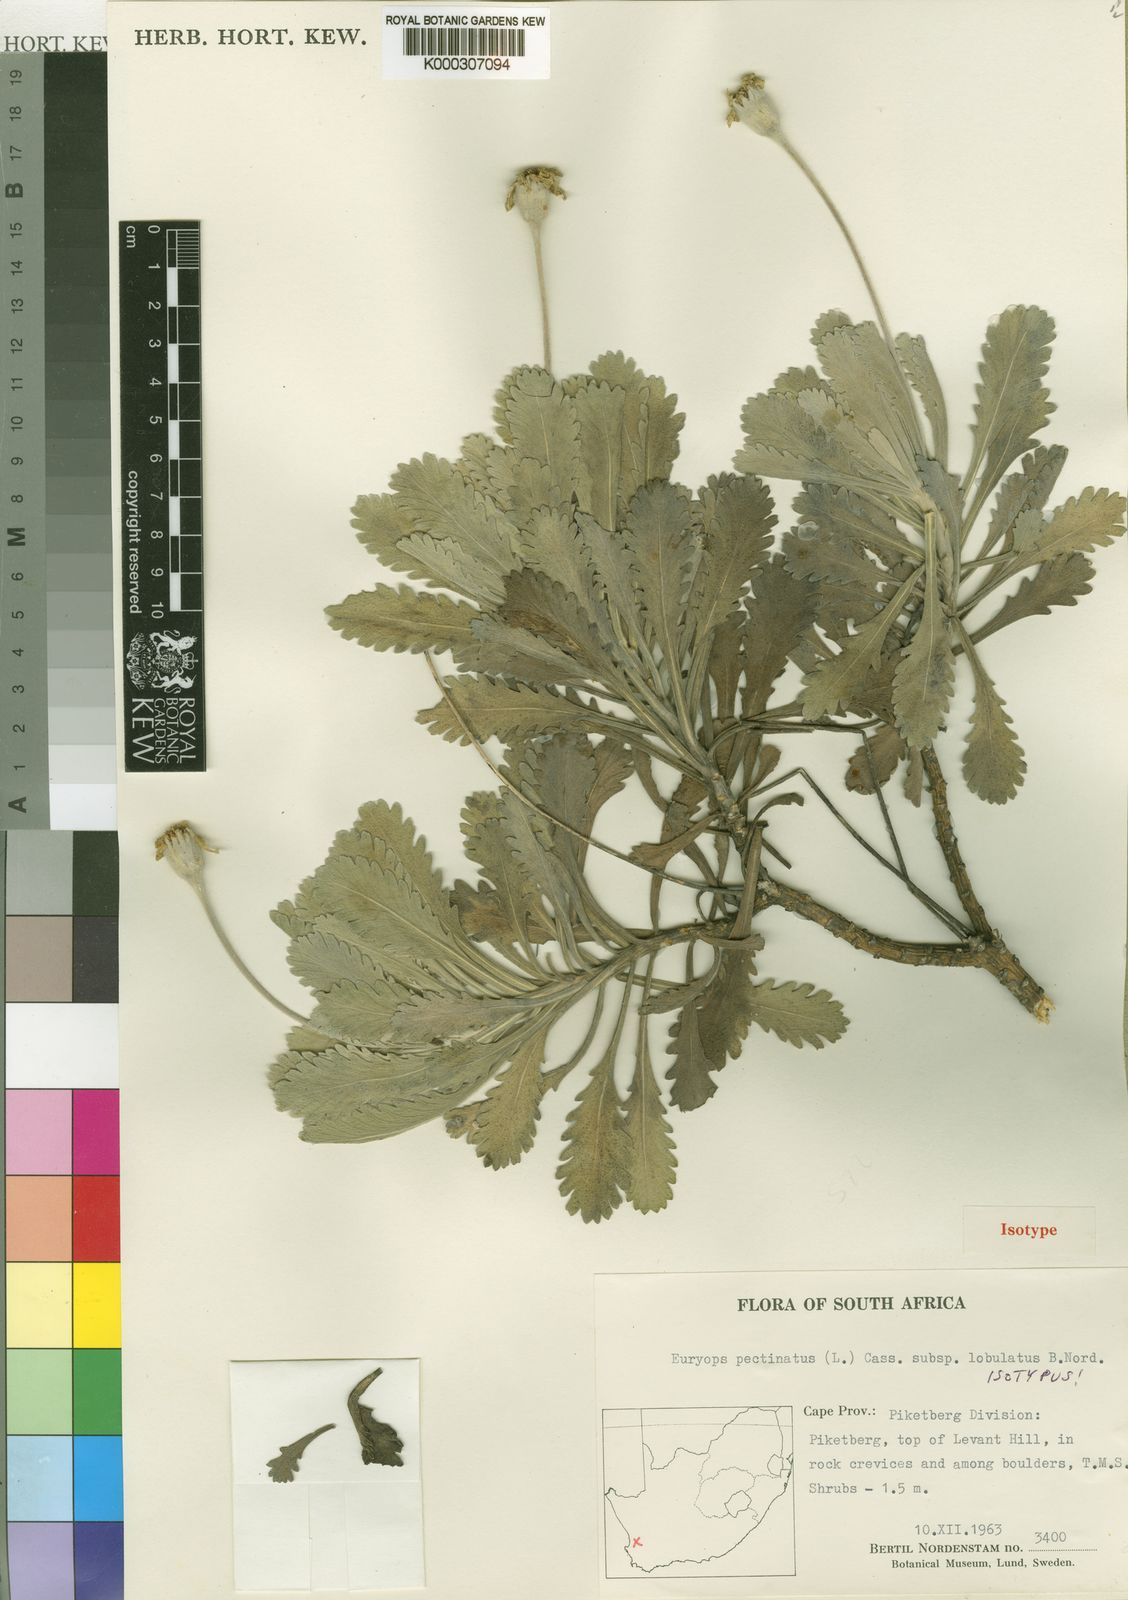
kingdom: Plantae
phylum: Tracheophyta
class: Magnoliopsida
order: Asterales
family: Asteraceae
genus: Euryops
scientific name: Euryops pectinatus
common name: Gray-leaf euryops
